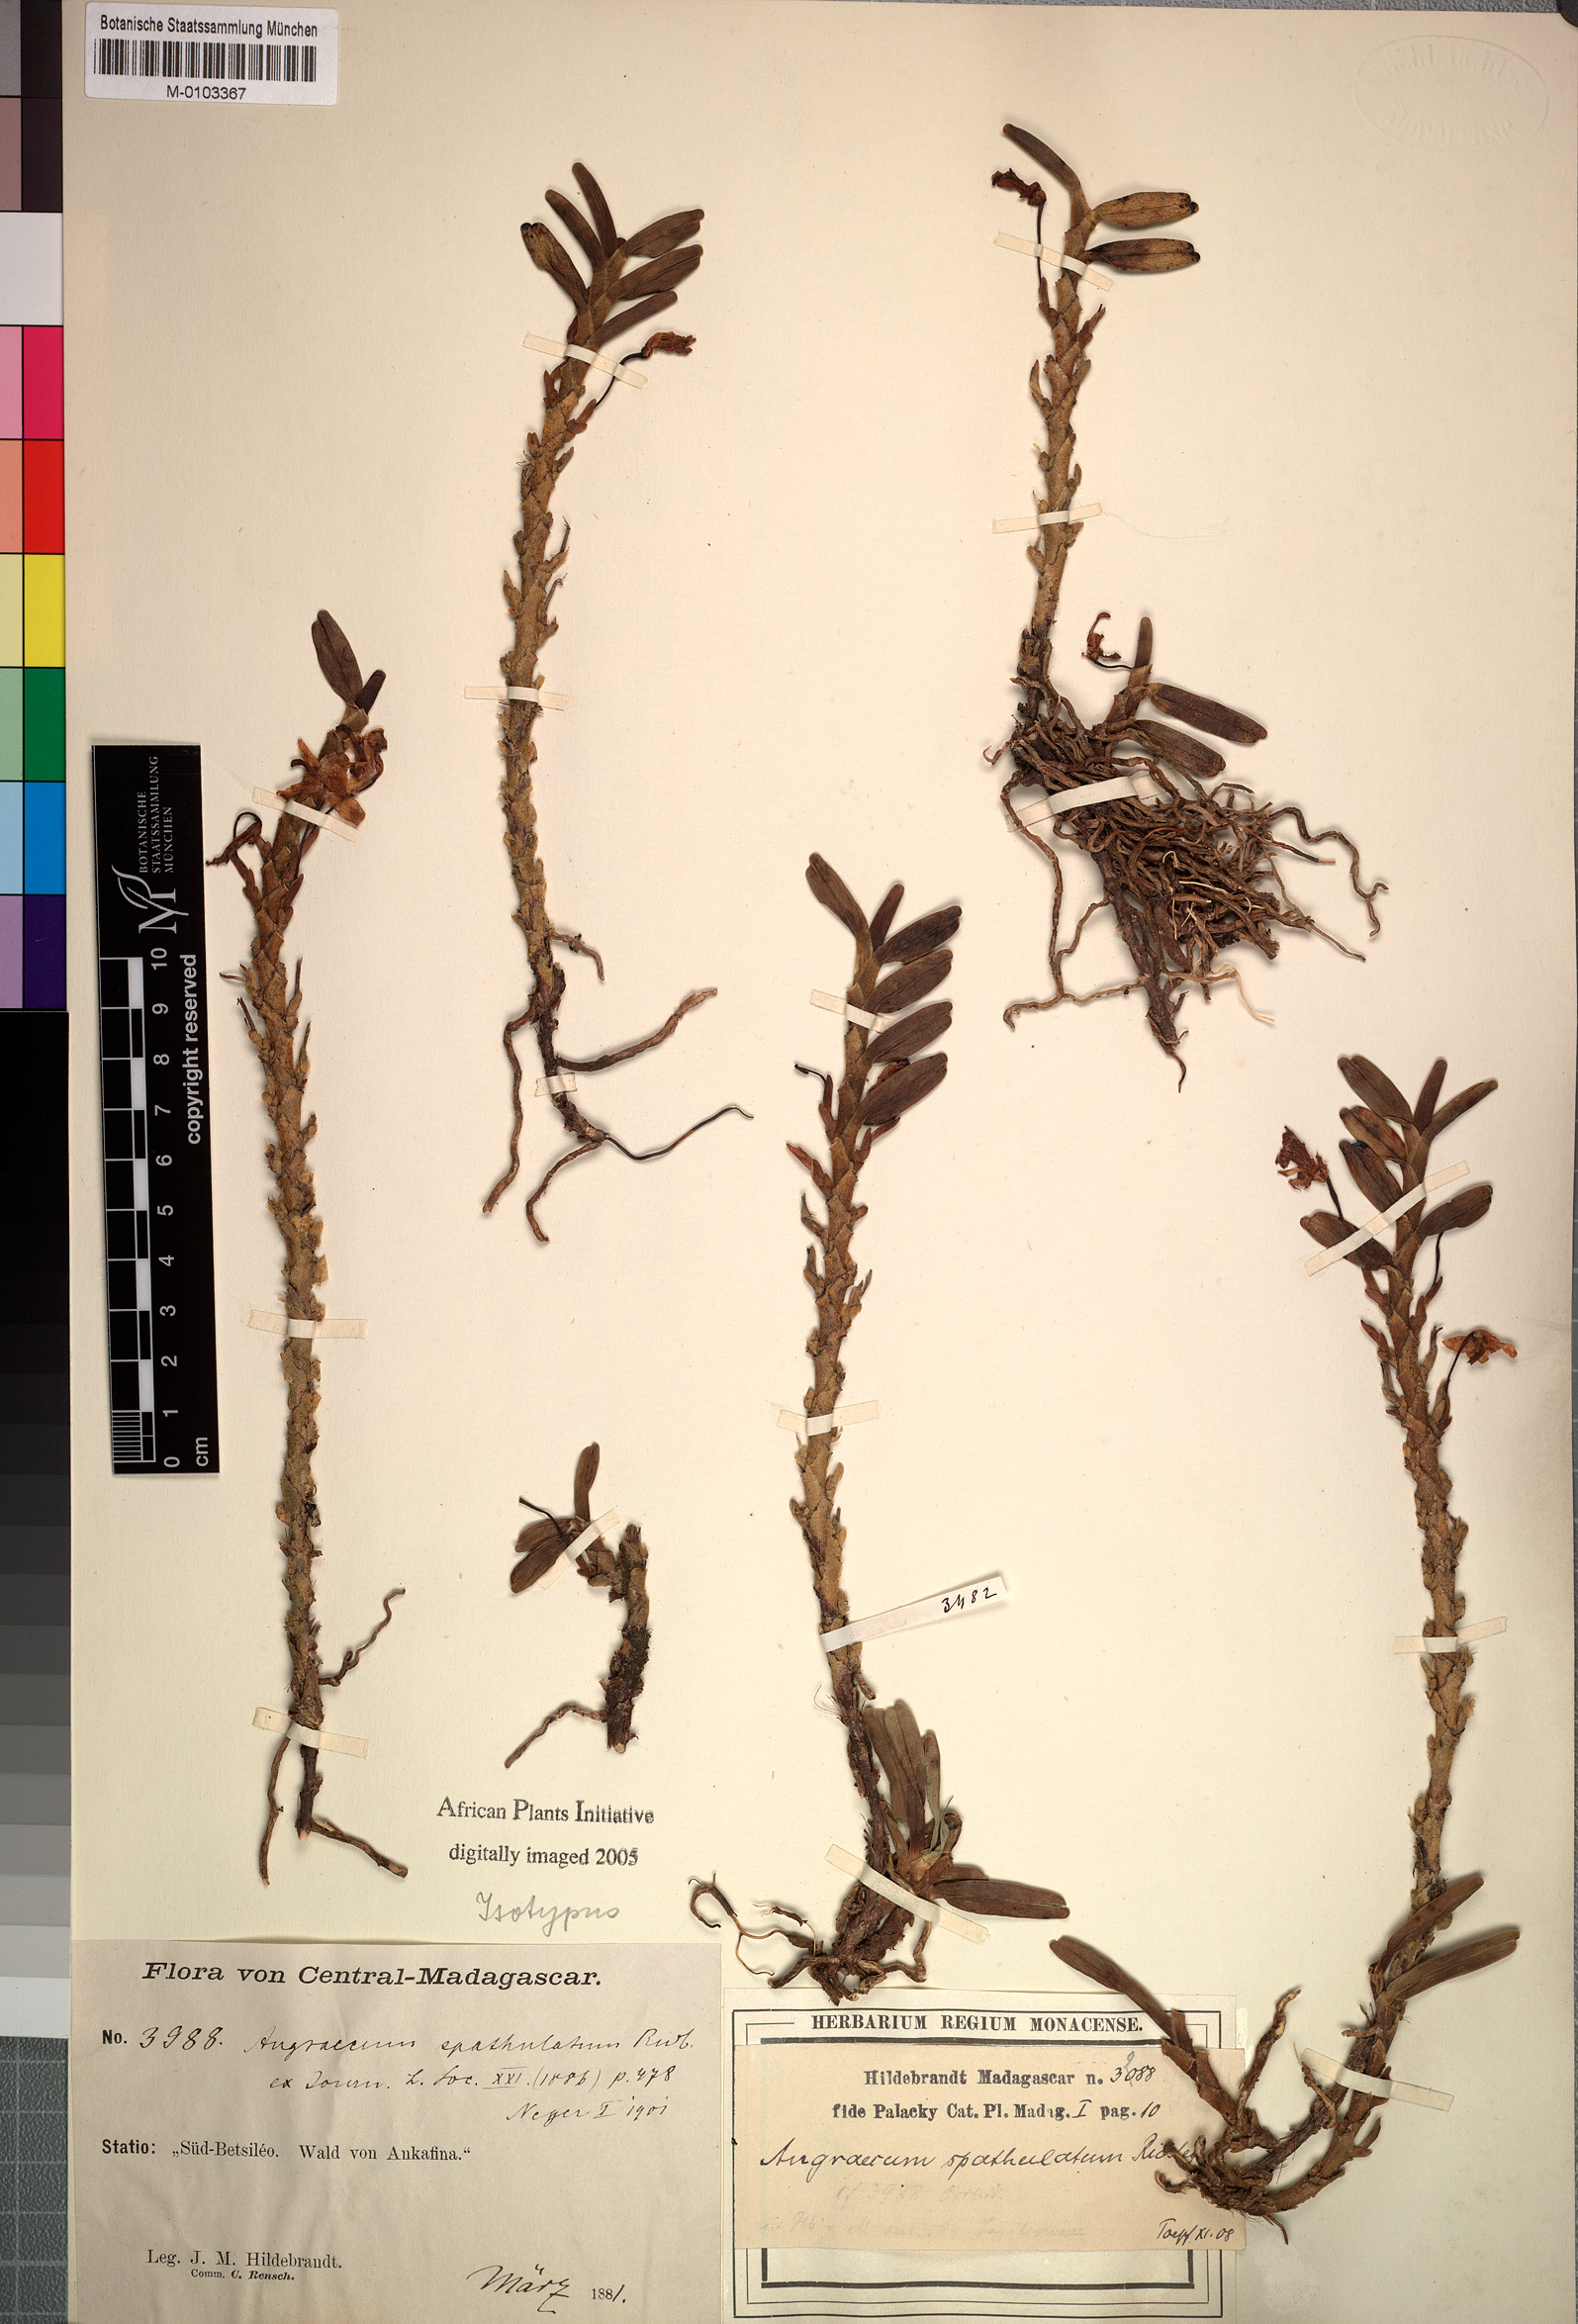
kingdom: Plantae
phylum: Tracheophyta
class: Liliopsida
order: Asparagales
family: Orchidaceae
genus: Jumellea
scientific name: Jumellea spathulata
